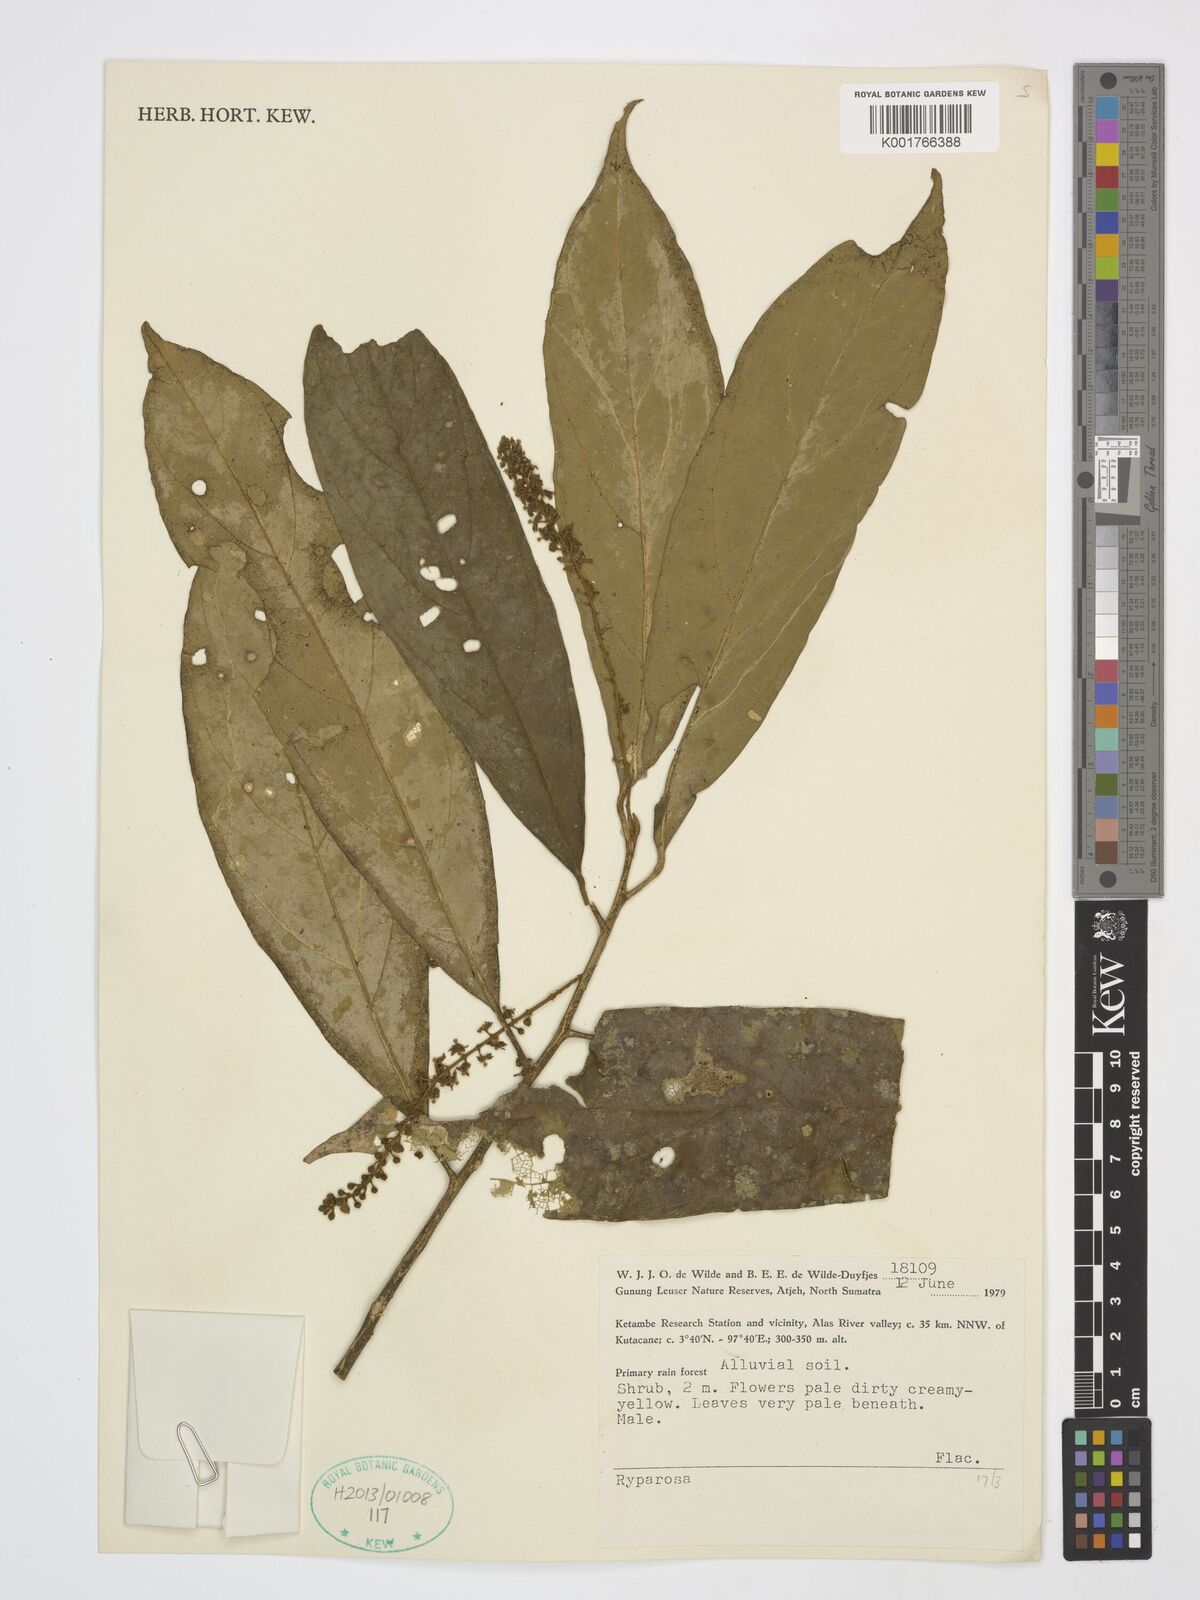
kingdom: Plantae
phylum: Tracheophyta
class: Magnoliopsida
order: Malpighiales
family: Achariaceae
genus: Ryparosa
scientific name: Ryparosa
